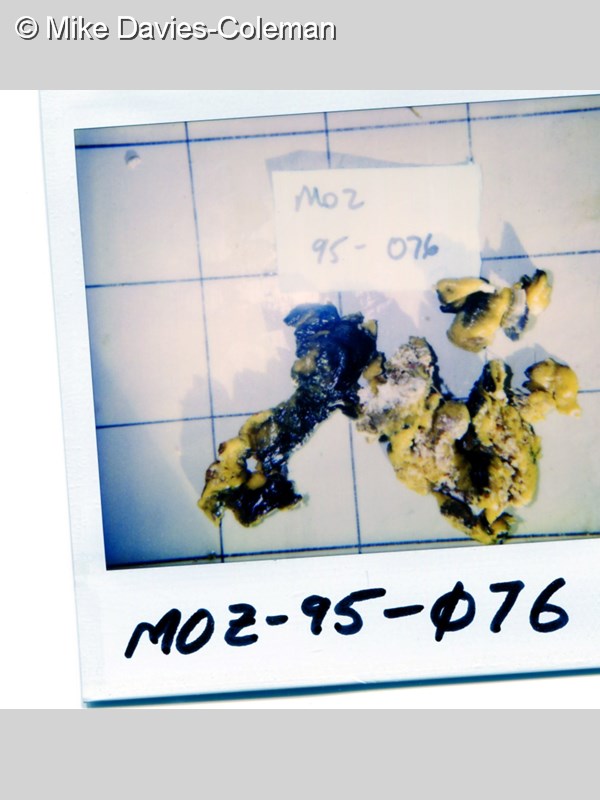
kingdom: Animalia
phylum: Porifera
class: Demospongiae
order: Verongiida
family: Pseudoceratinidae
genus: Pseudoceratina
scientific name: Pseudoceratina
